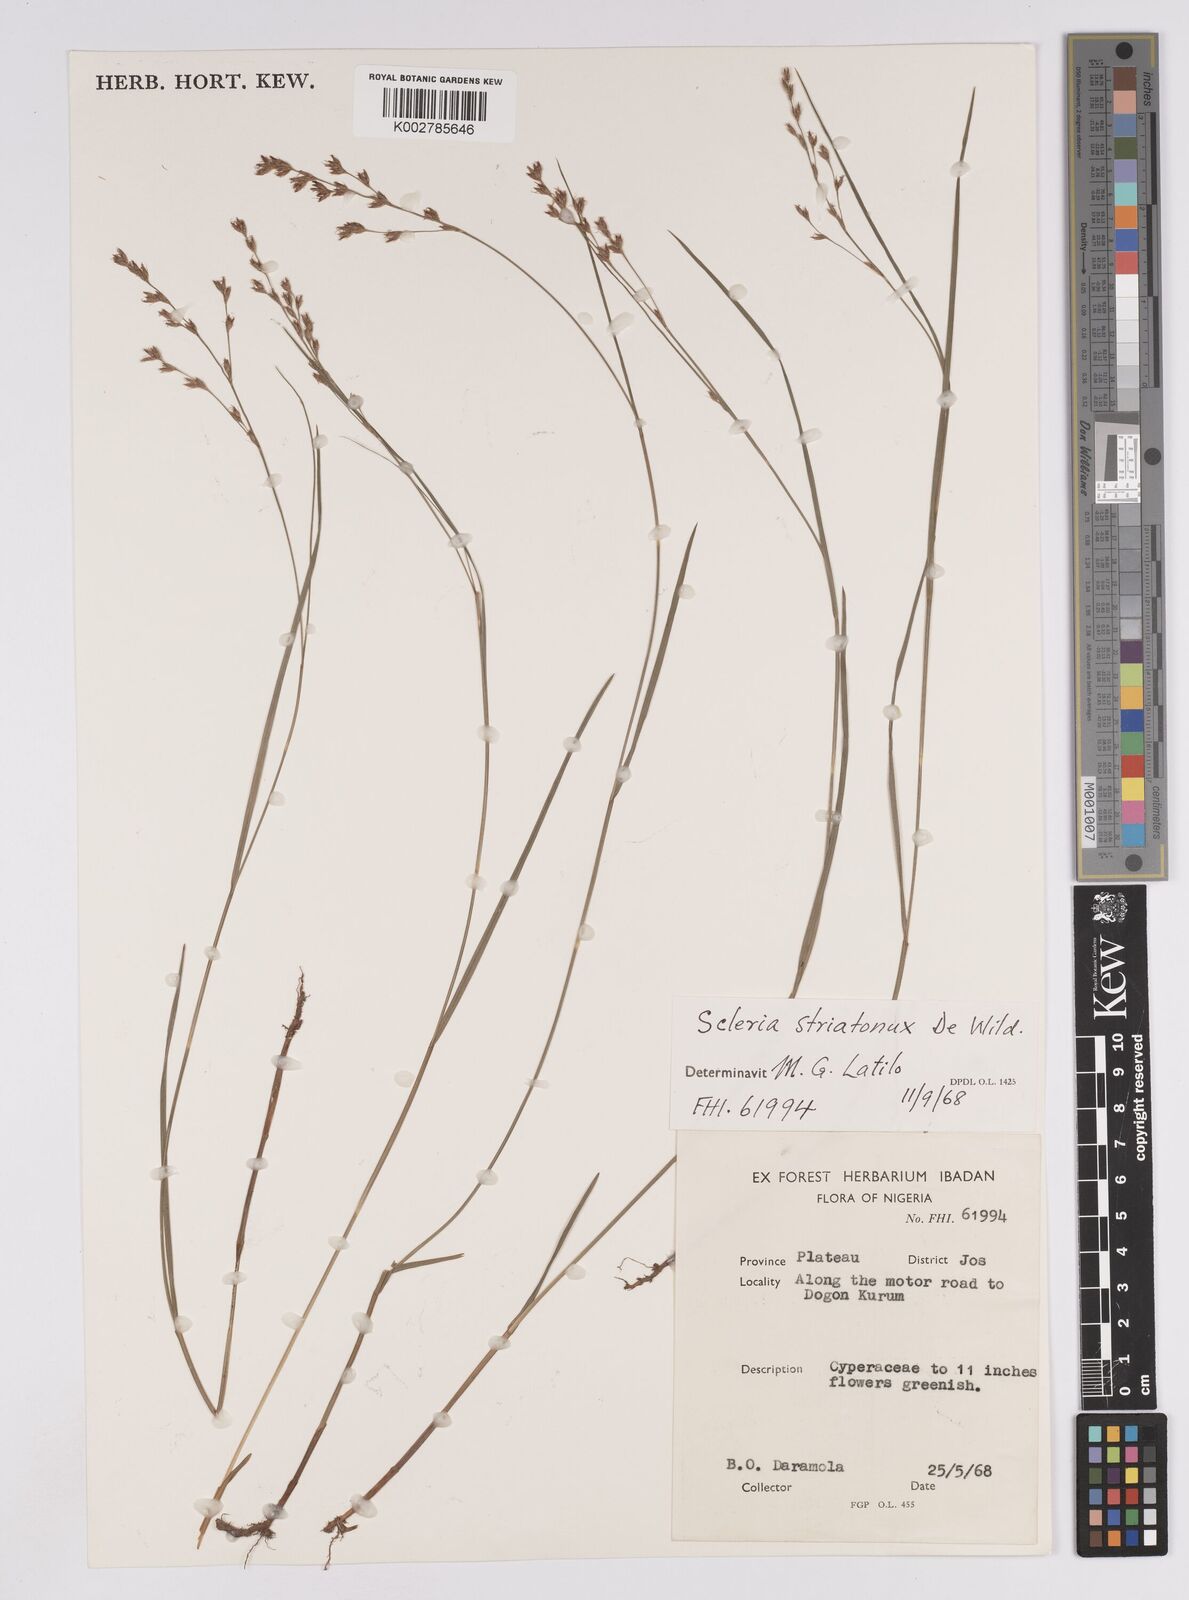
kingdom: Plantae
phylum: Tracheophyta
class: Liliopsida
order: Poales
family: Cyperaceae
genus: Scleria
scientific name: Scleria woodii
